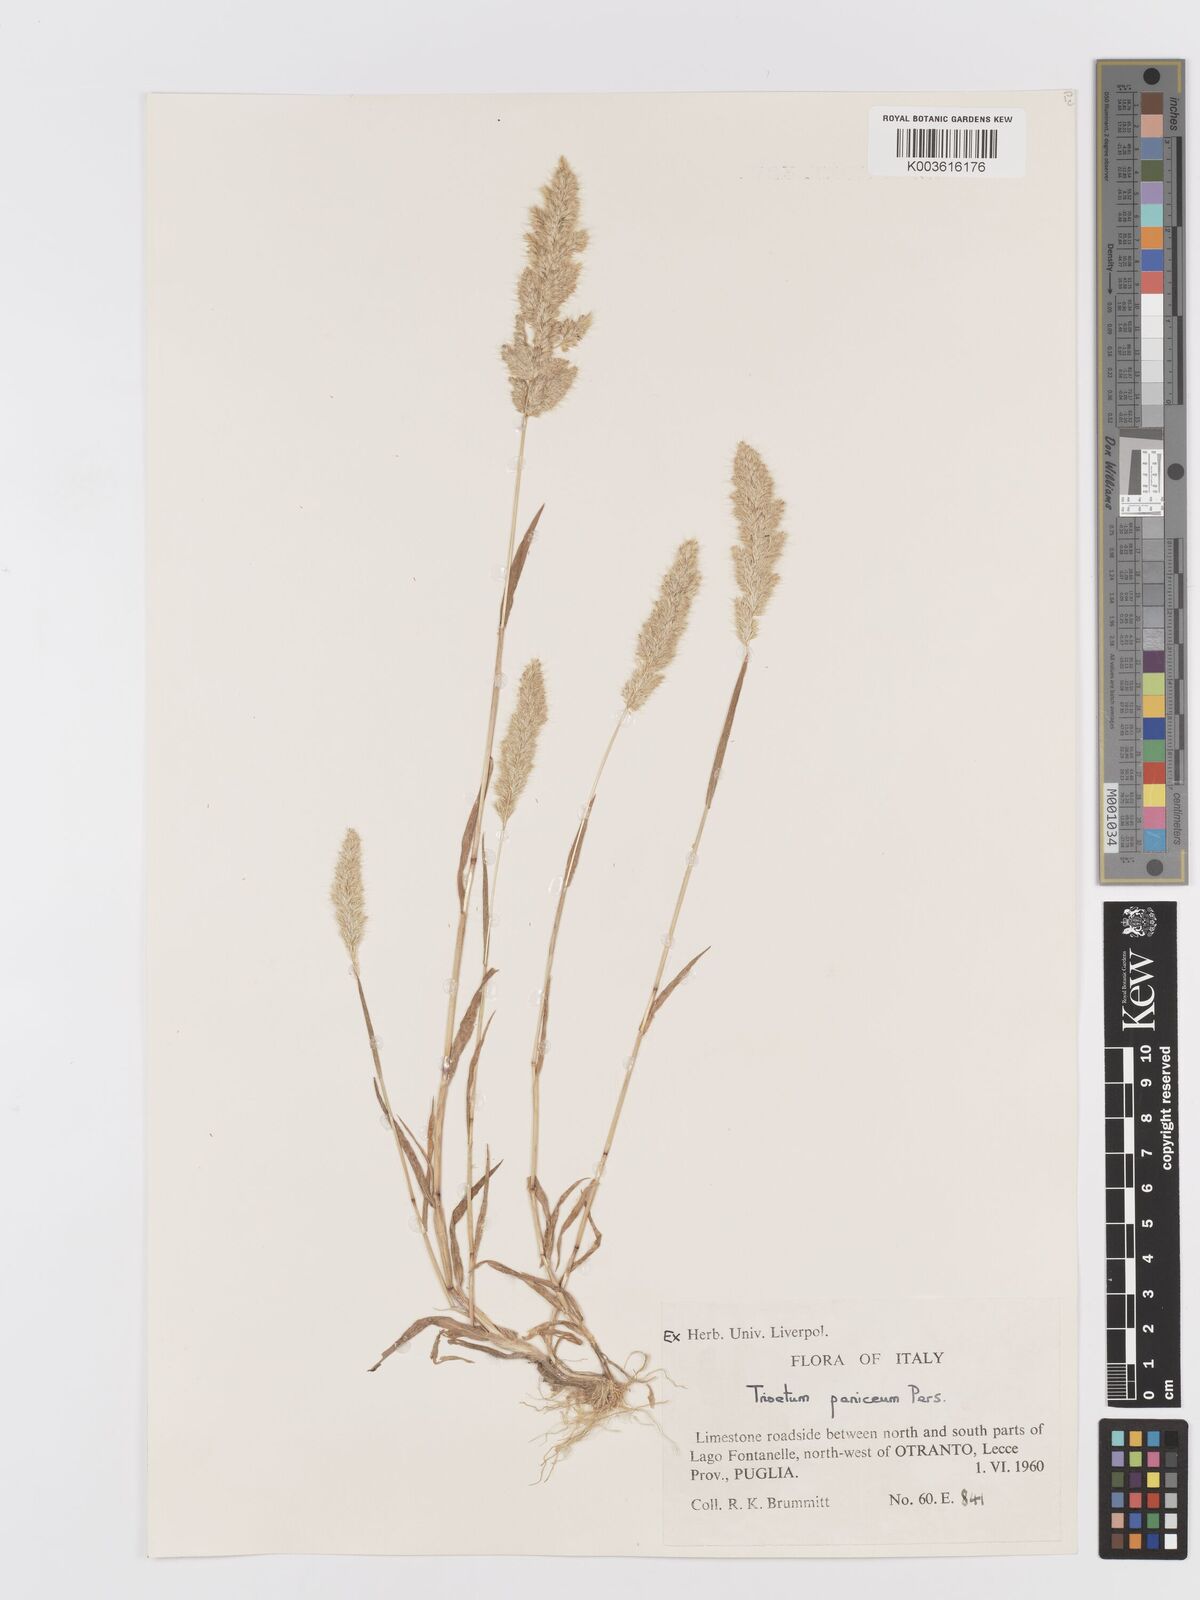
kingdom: Plantae
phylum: Tracheophyta
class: Liliopsida
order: Poales
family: Poaceae
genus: Trisetaria
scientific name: Trisetaria panicea
